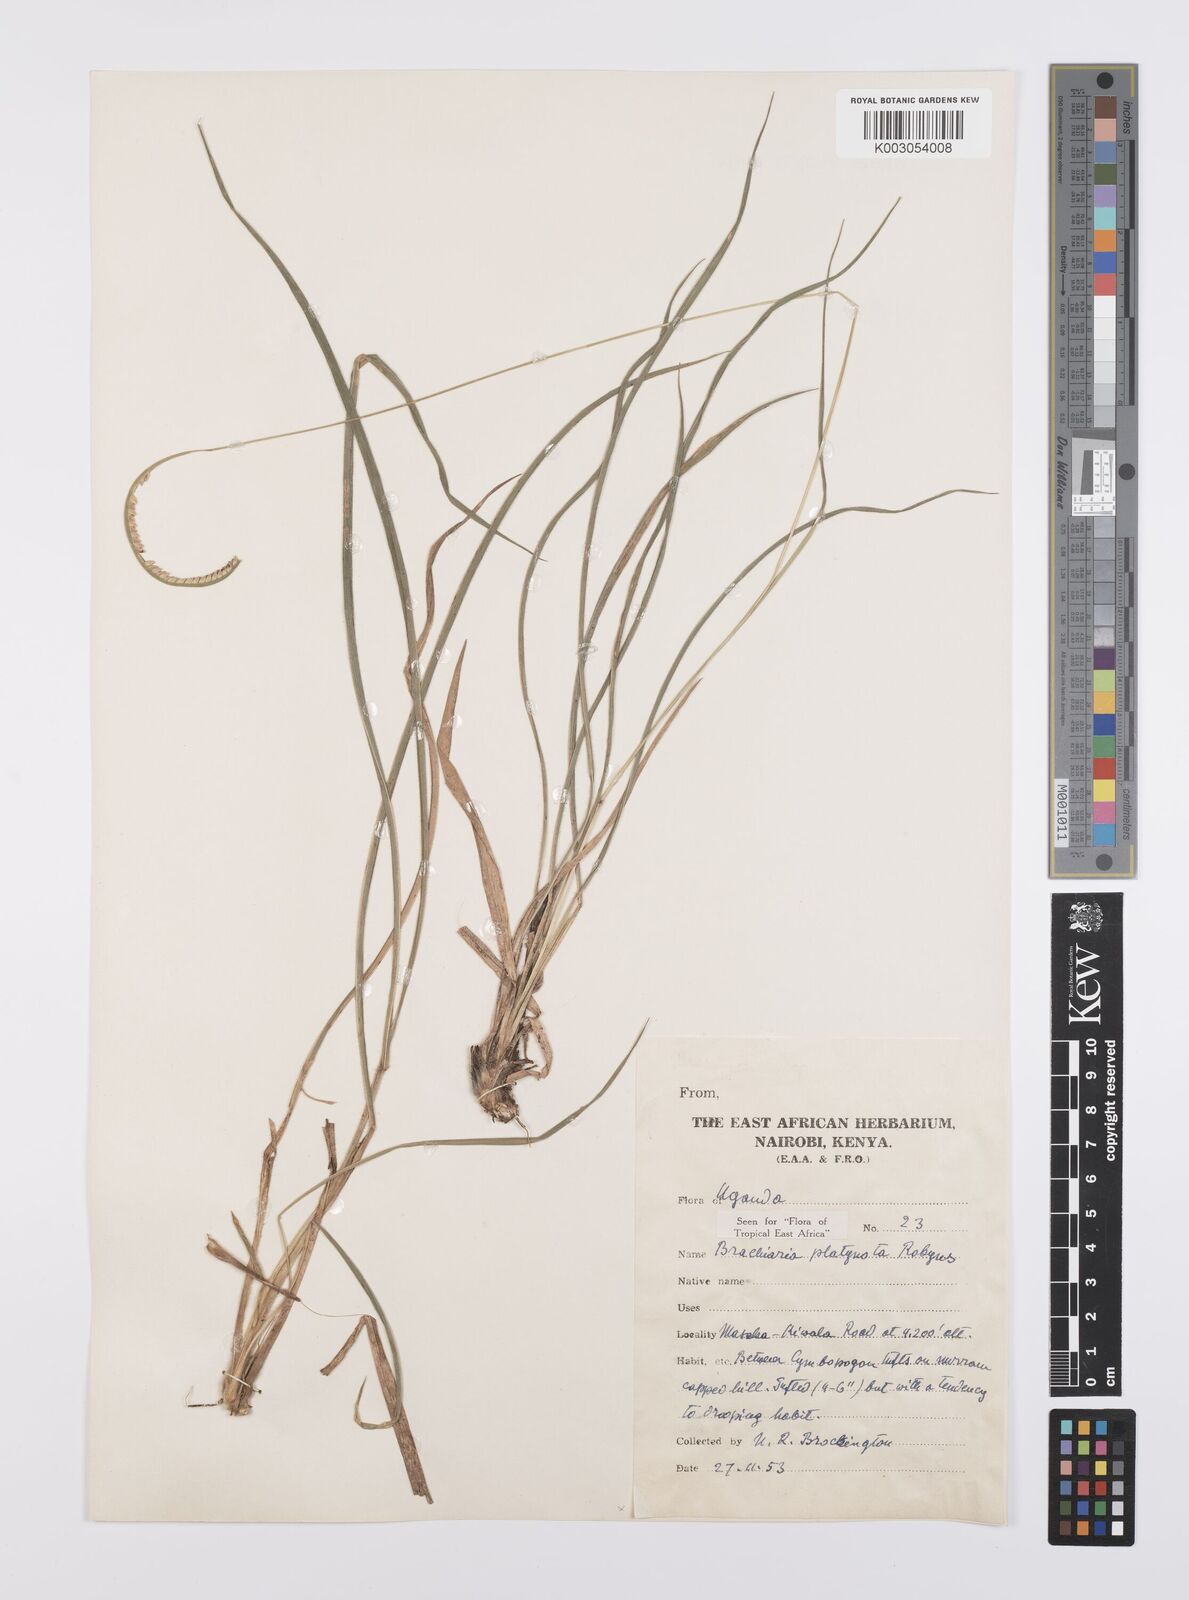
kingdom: Plantae
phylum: Tracheophyta
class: Liliopsida
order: Poales
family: Poaceae
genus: Urochloa
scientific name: Urochloa platynota
